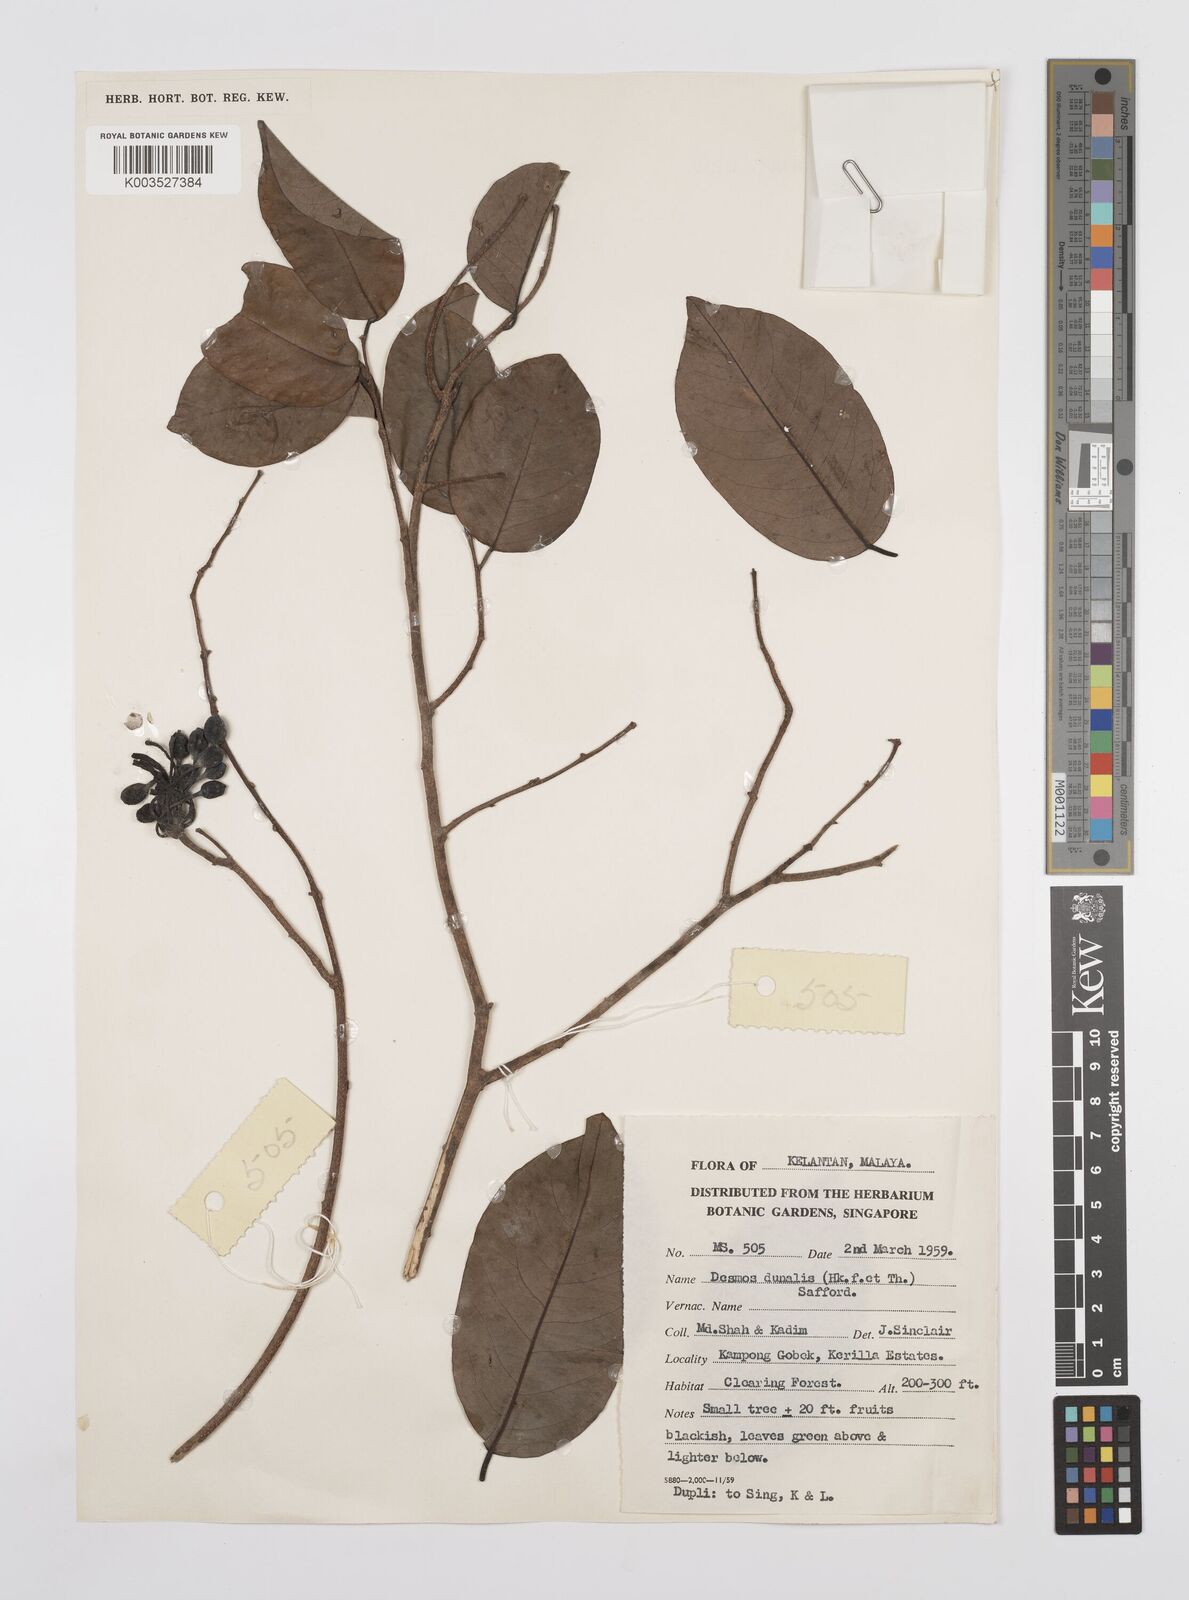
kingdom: Plantae
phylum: Tracheophyta
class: Magnoliopsida
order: Magnoliales
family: Annonaceae
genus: Desmos
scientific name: Desmos dunalii
